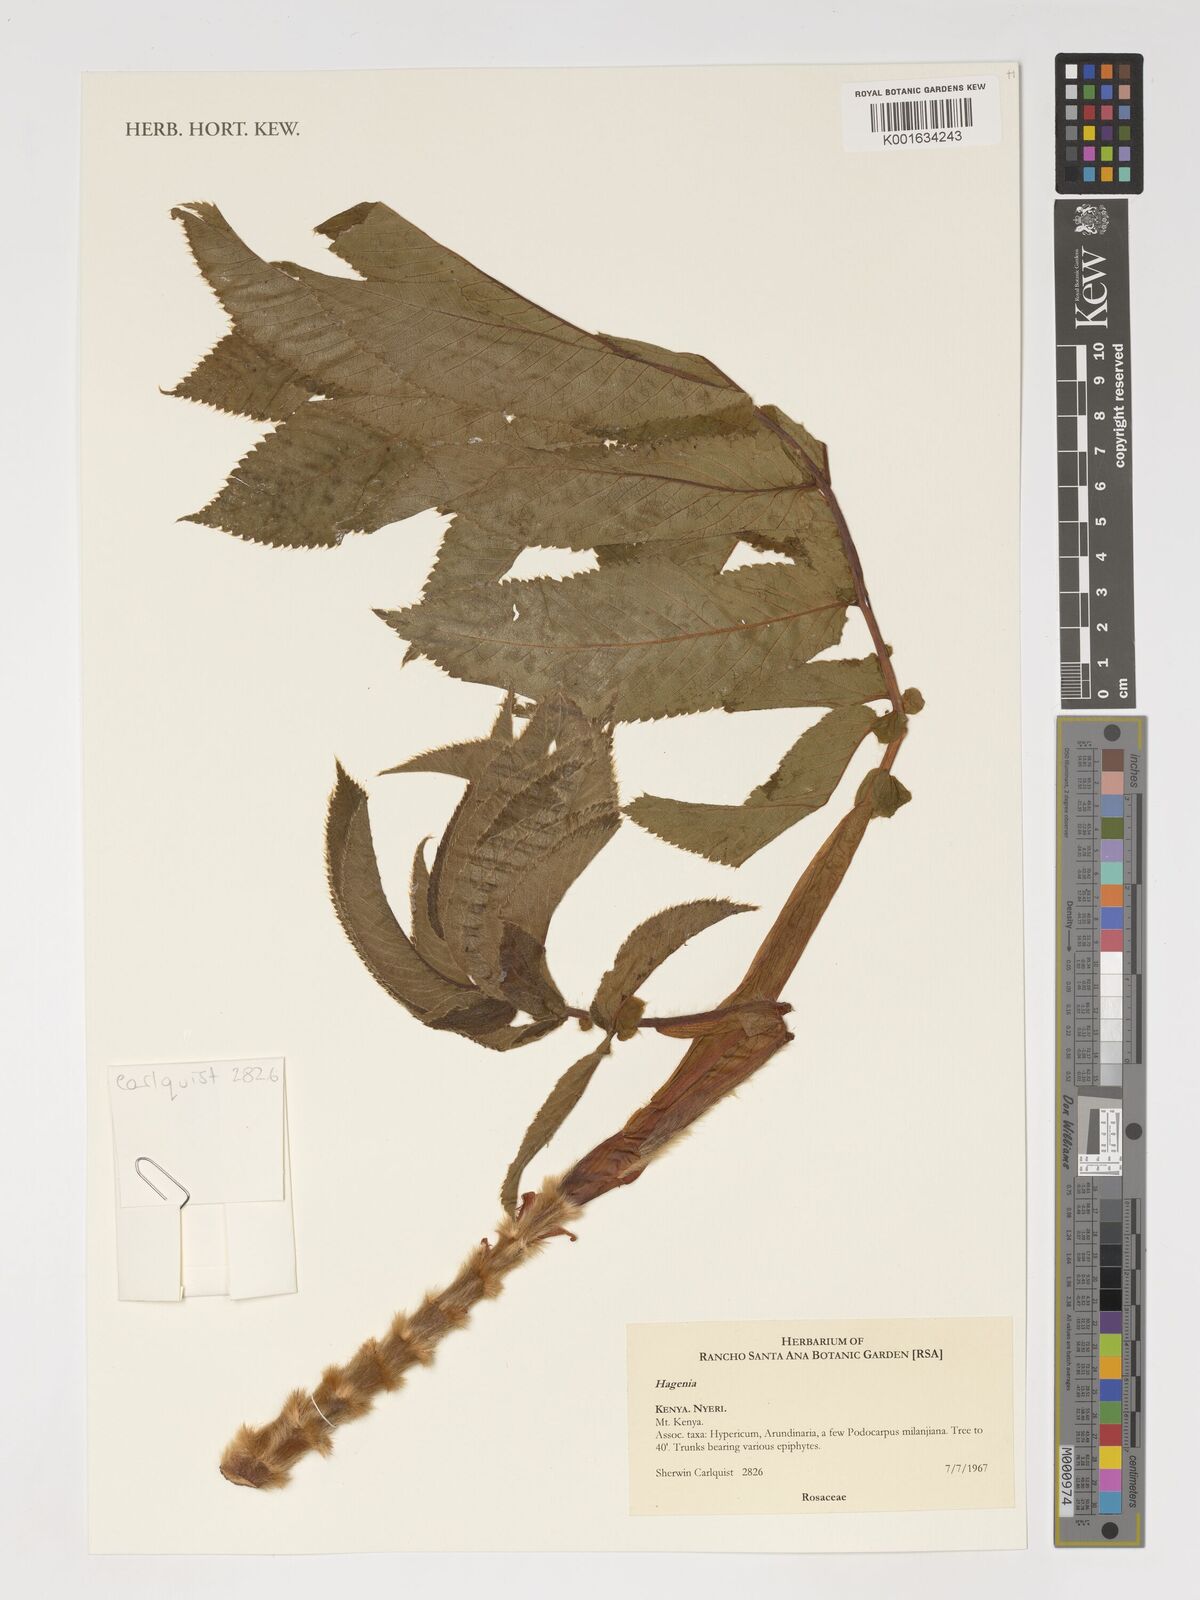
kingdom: Fungi
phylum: Ascomycota
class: Lecanoromycetes
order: Caliciales
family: Physciaceae
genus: Anaptychia
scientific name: Anaptychia
